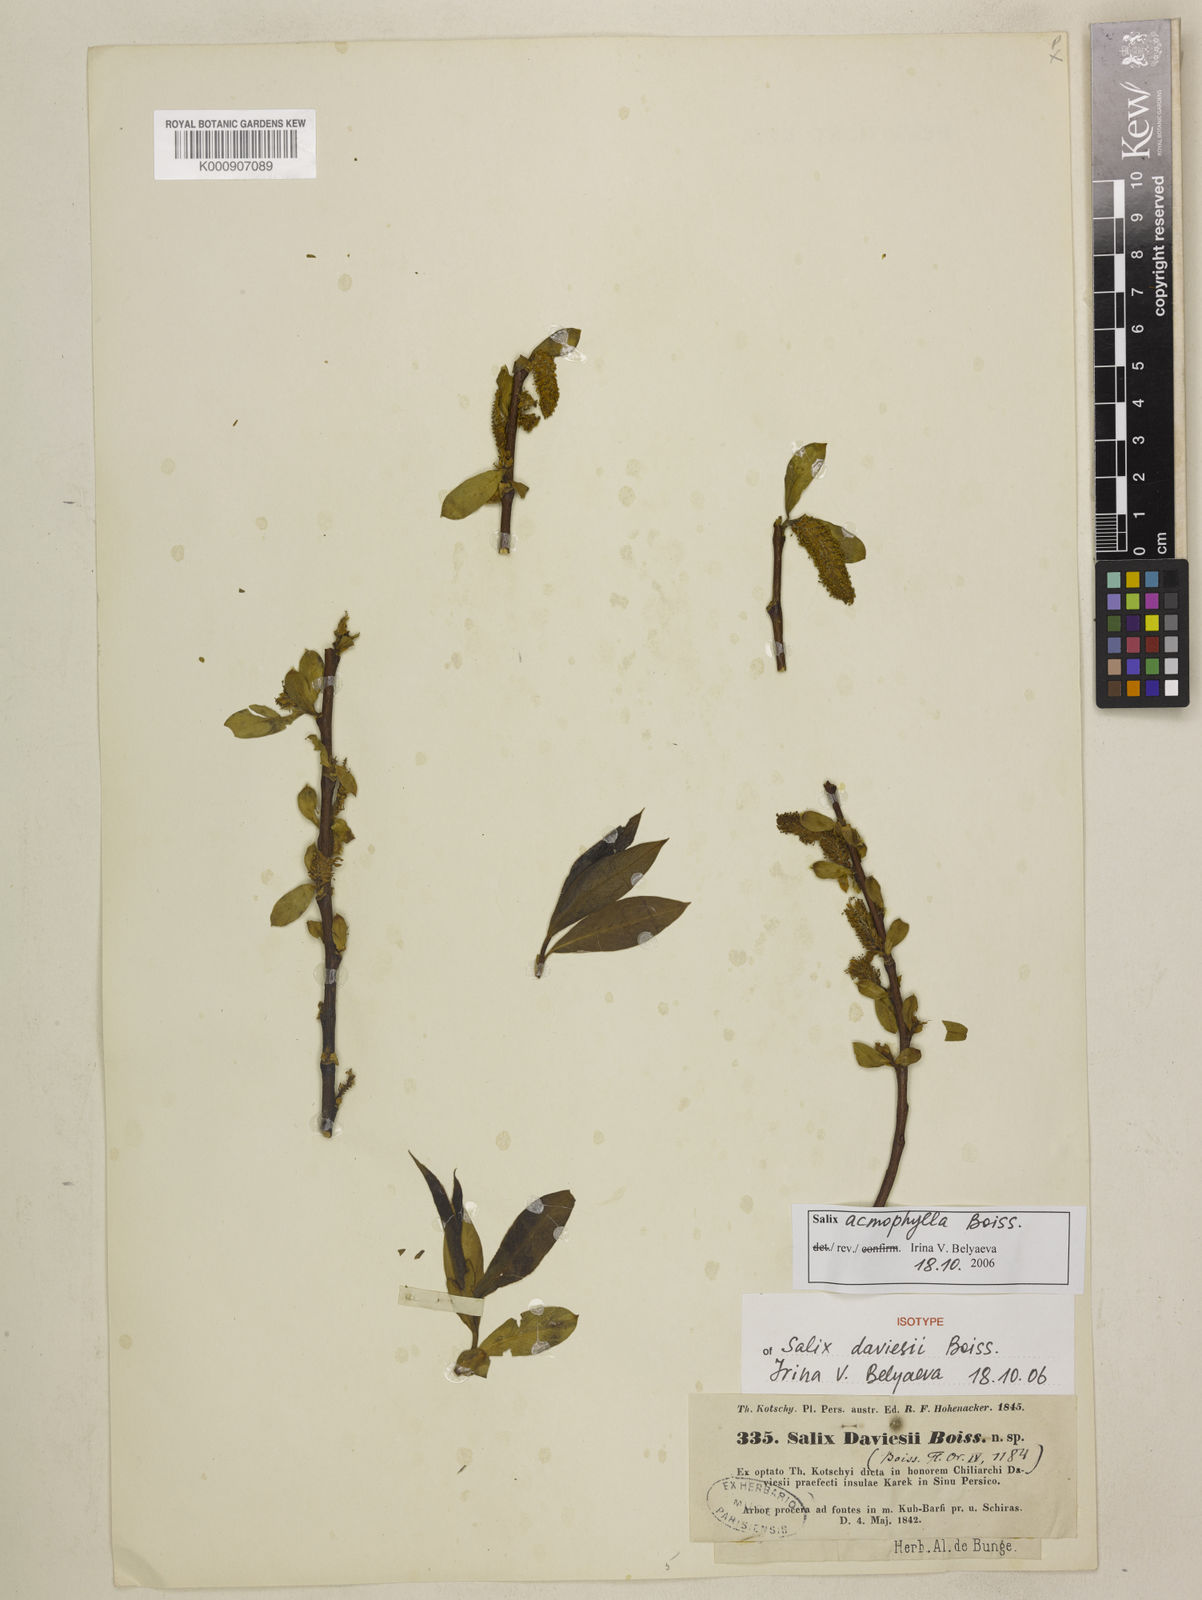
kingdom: Plantae
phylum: Tracheophyta
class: Magnoliopsida
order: Malpighiales
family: Salicaceae
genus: Salix
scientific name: Salix acmophylla
